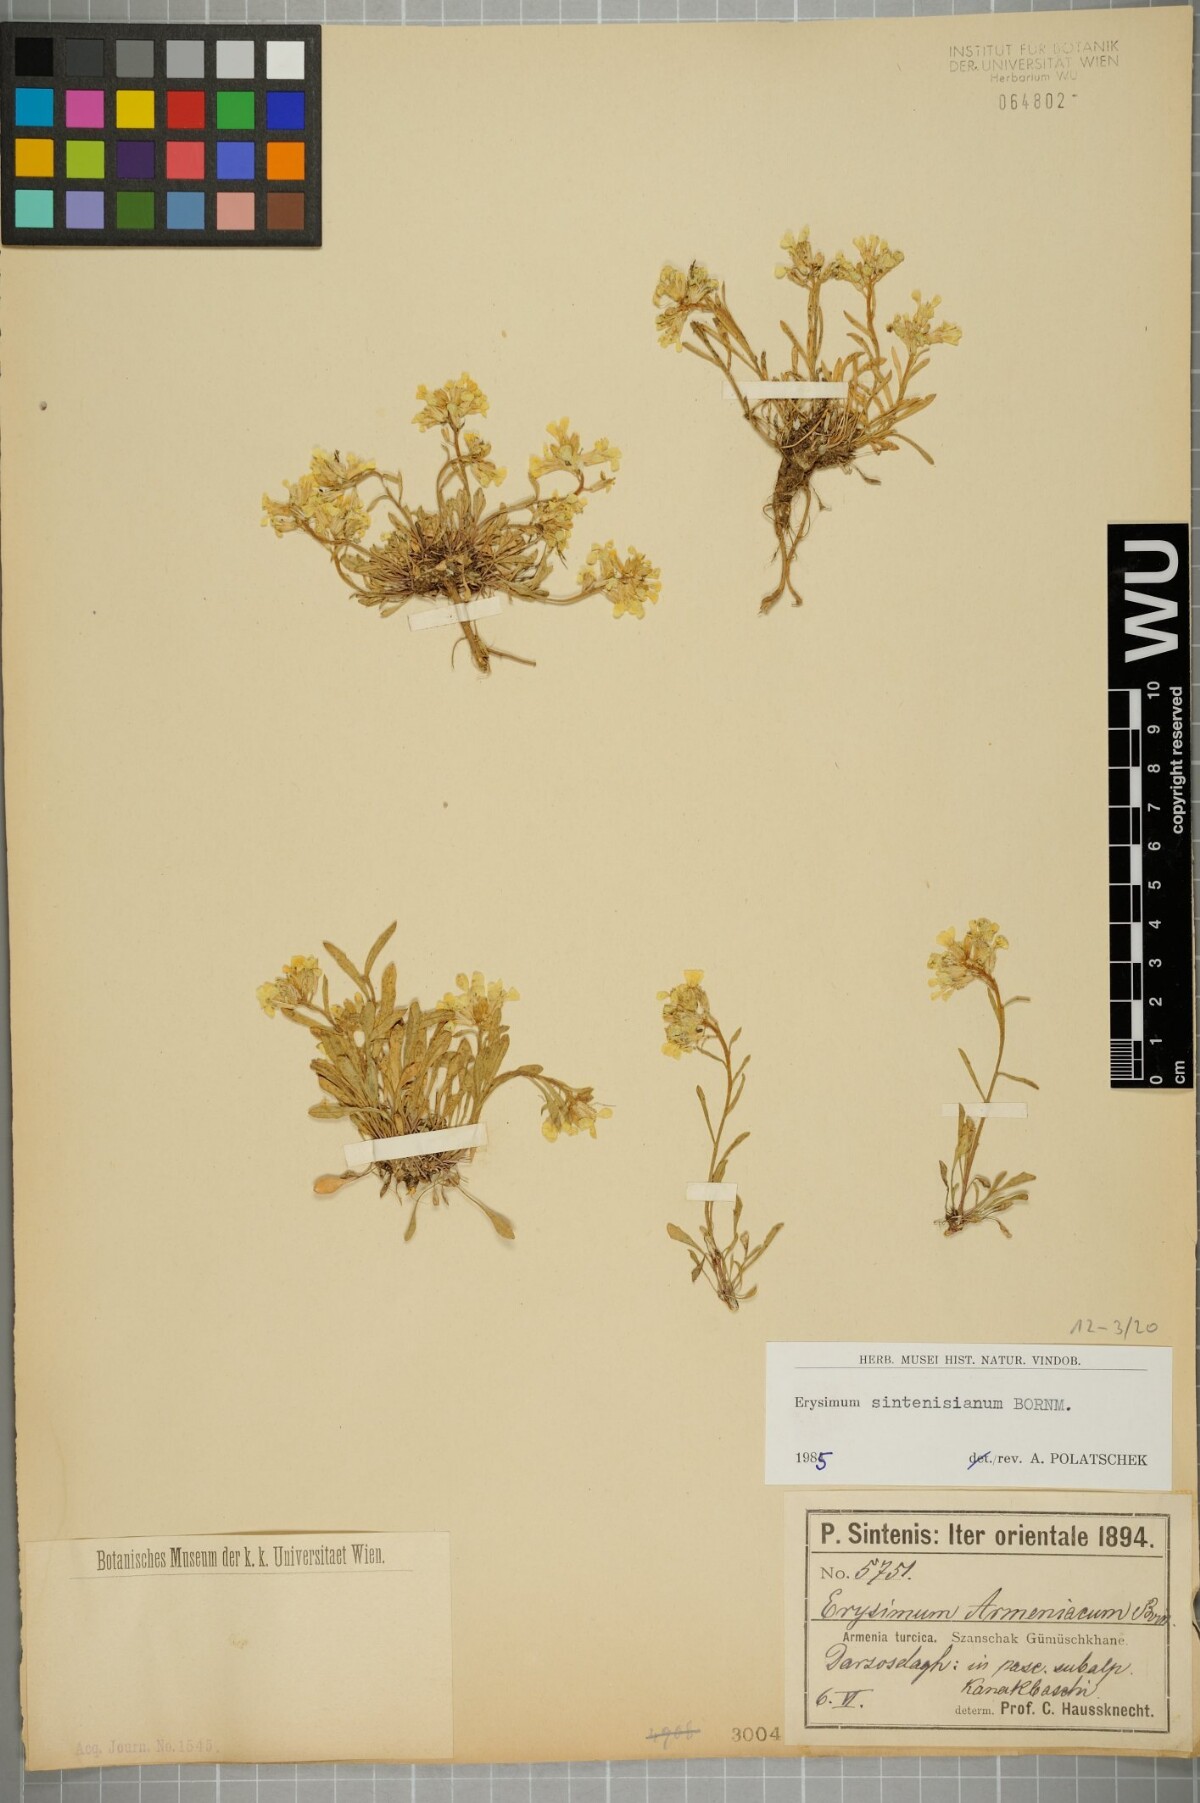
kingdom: Plantae
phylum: Tracheophyta
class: Magnoliopsida
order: Brassicales
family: Brassicaceae
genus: Erysimum
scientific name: Erysimum sintenisianum
